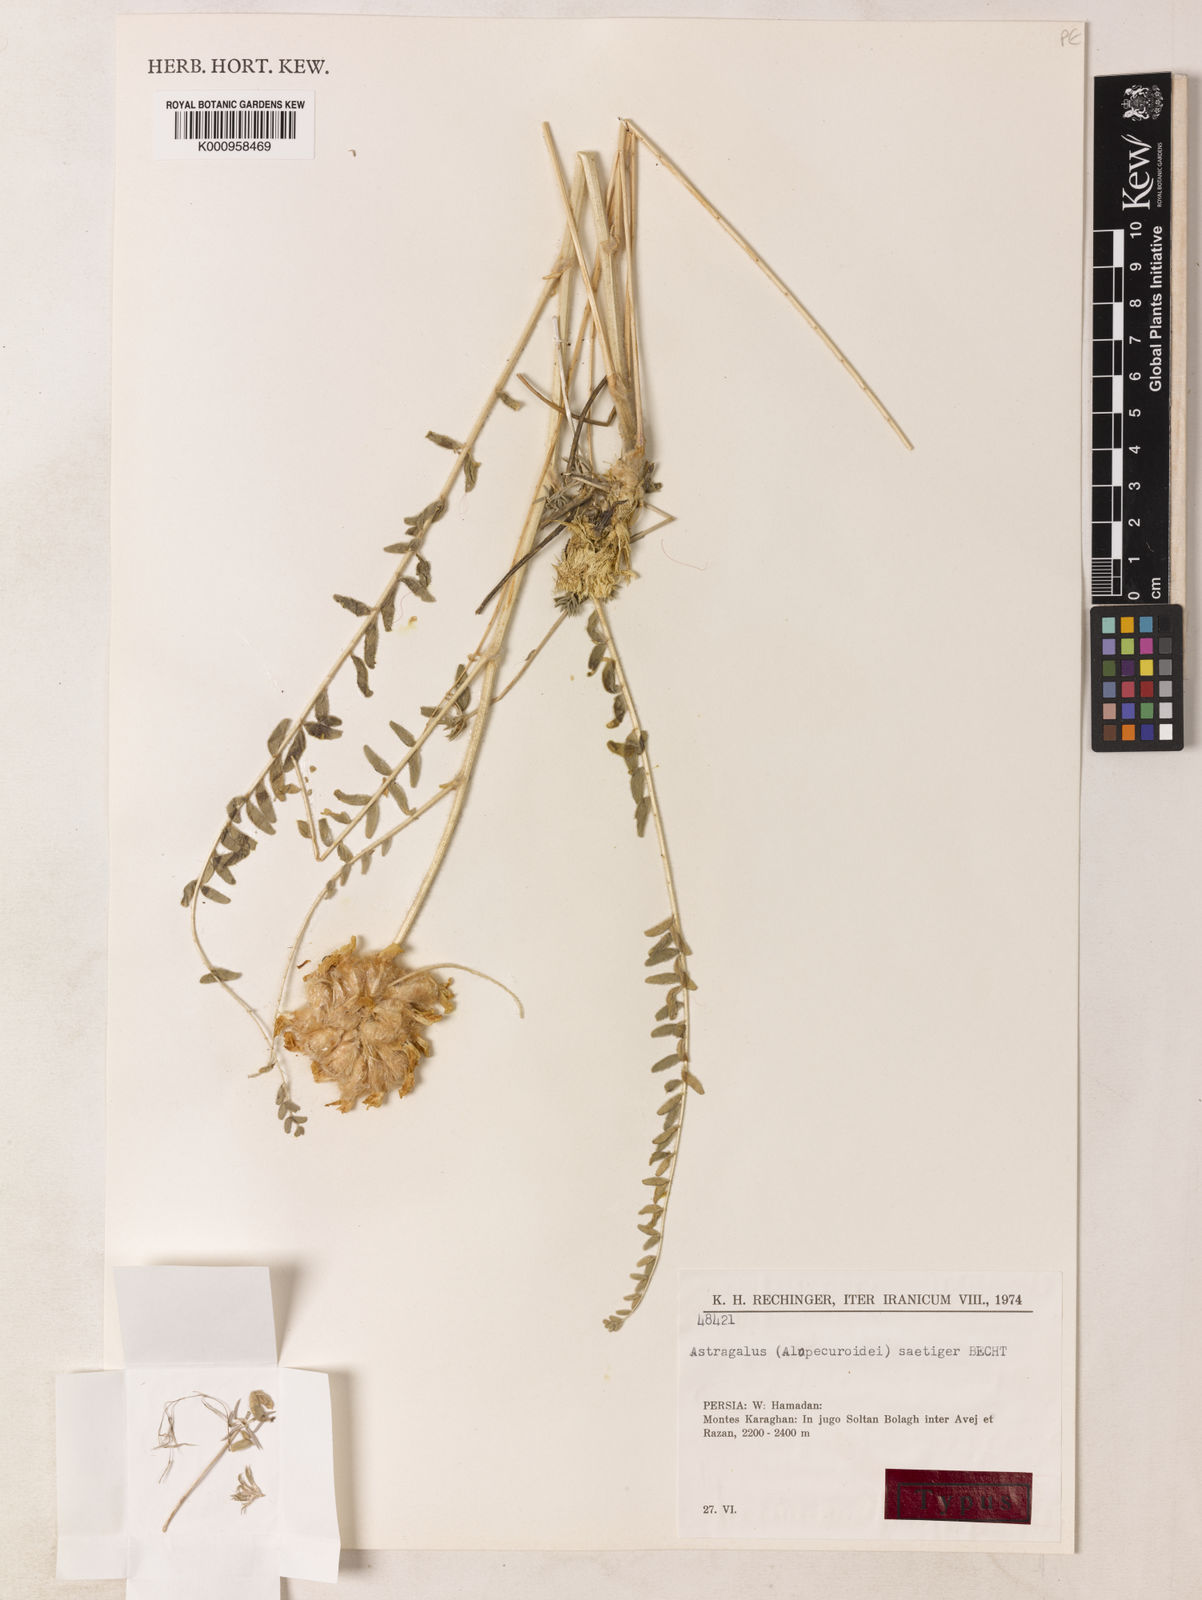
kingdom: Plantae
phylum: Tracheophyta
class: Magnoliopsida
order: Fabales
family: Fabaceae
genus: Astragalus
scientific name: Astragalus
